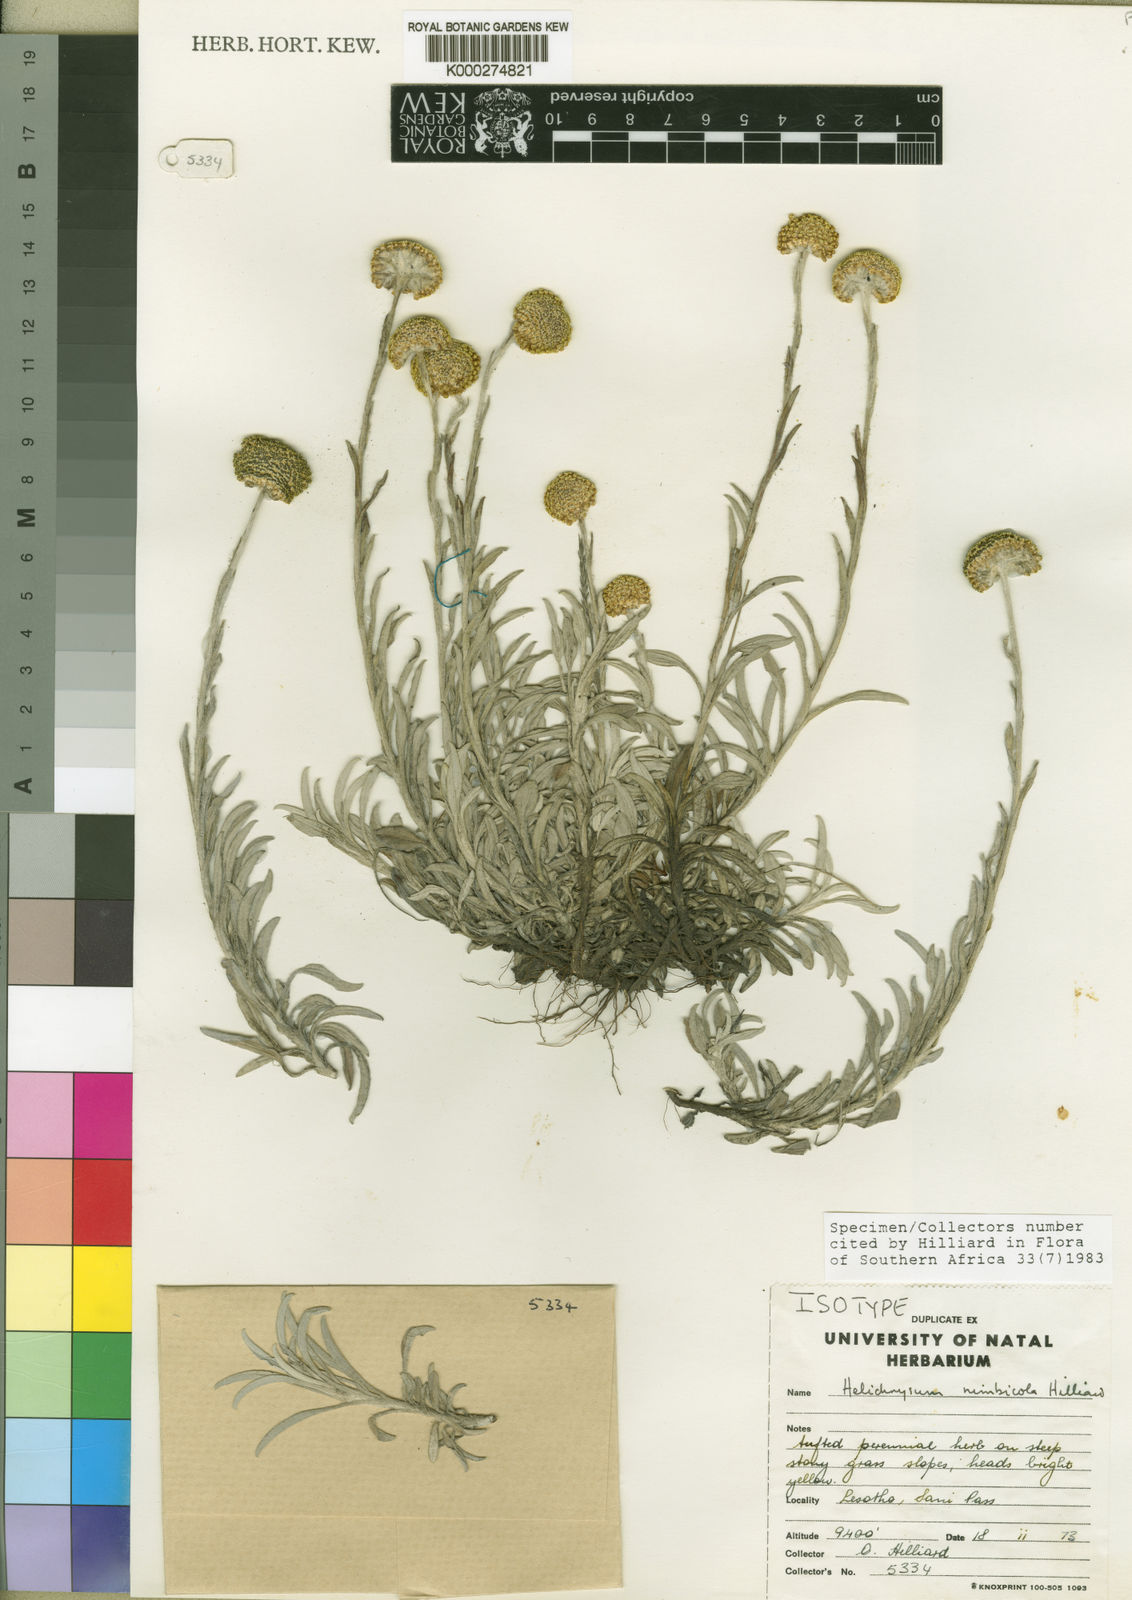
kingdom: Plantae
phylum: Tracheophyta
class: Magnoliopsida
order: Asterales
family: Asteraceae
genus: Helichrysum
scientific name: Helichrysum nimbicola
